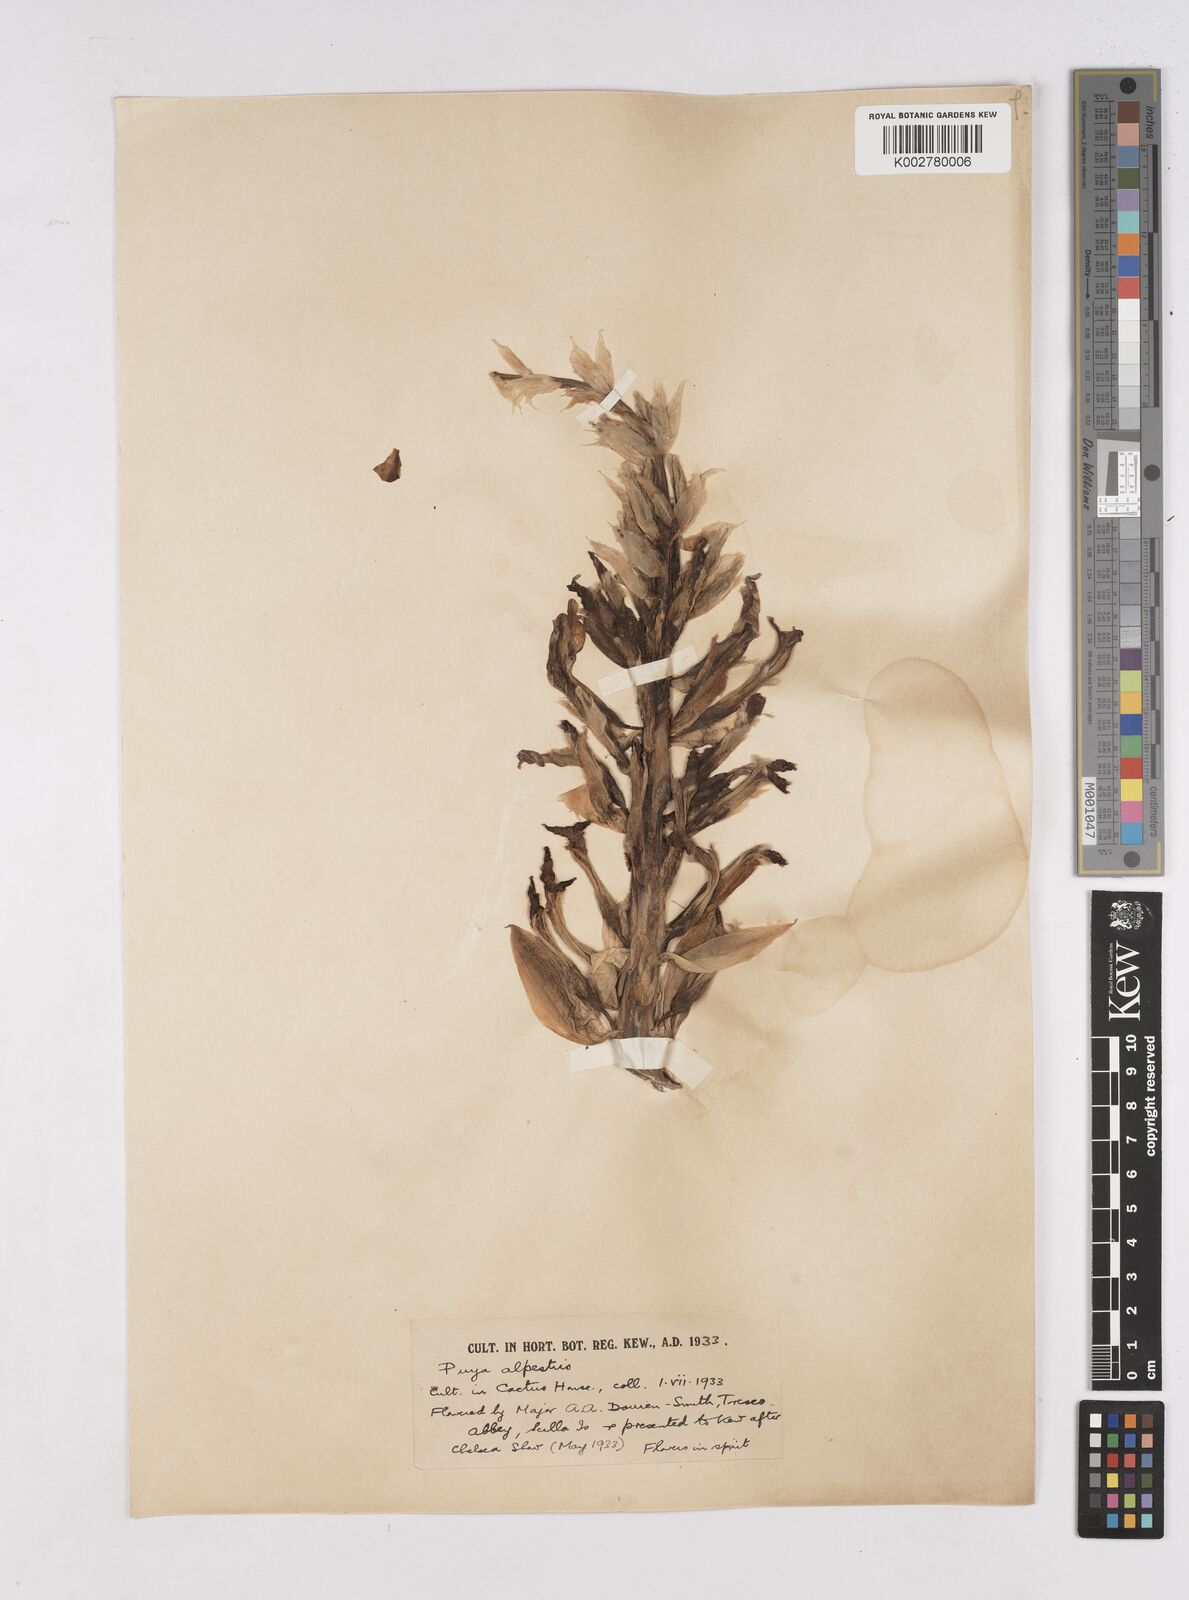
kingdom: Plantae
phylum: Tracheophyta
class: Liliopsida
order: Poales
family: Bromeliaceae
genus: Puya
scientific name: Puya alpestris
